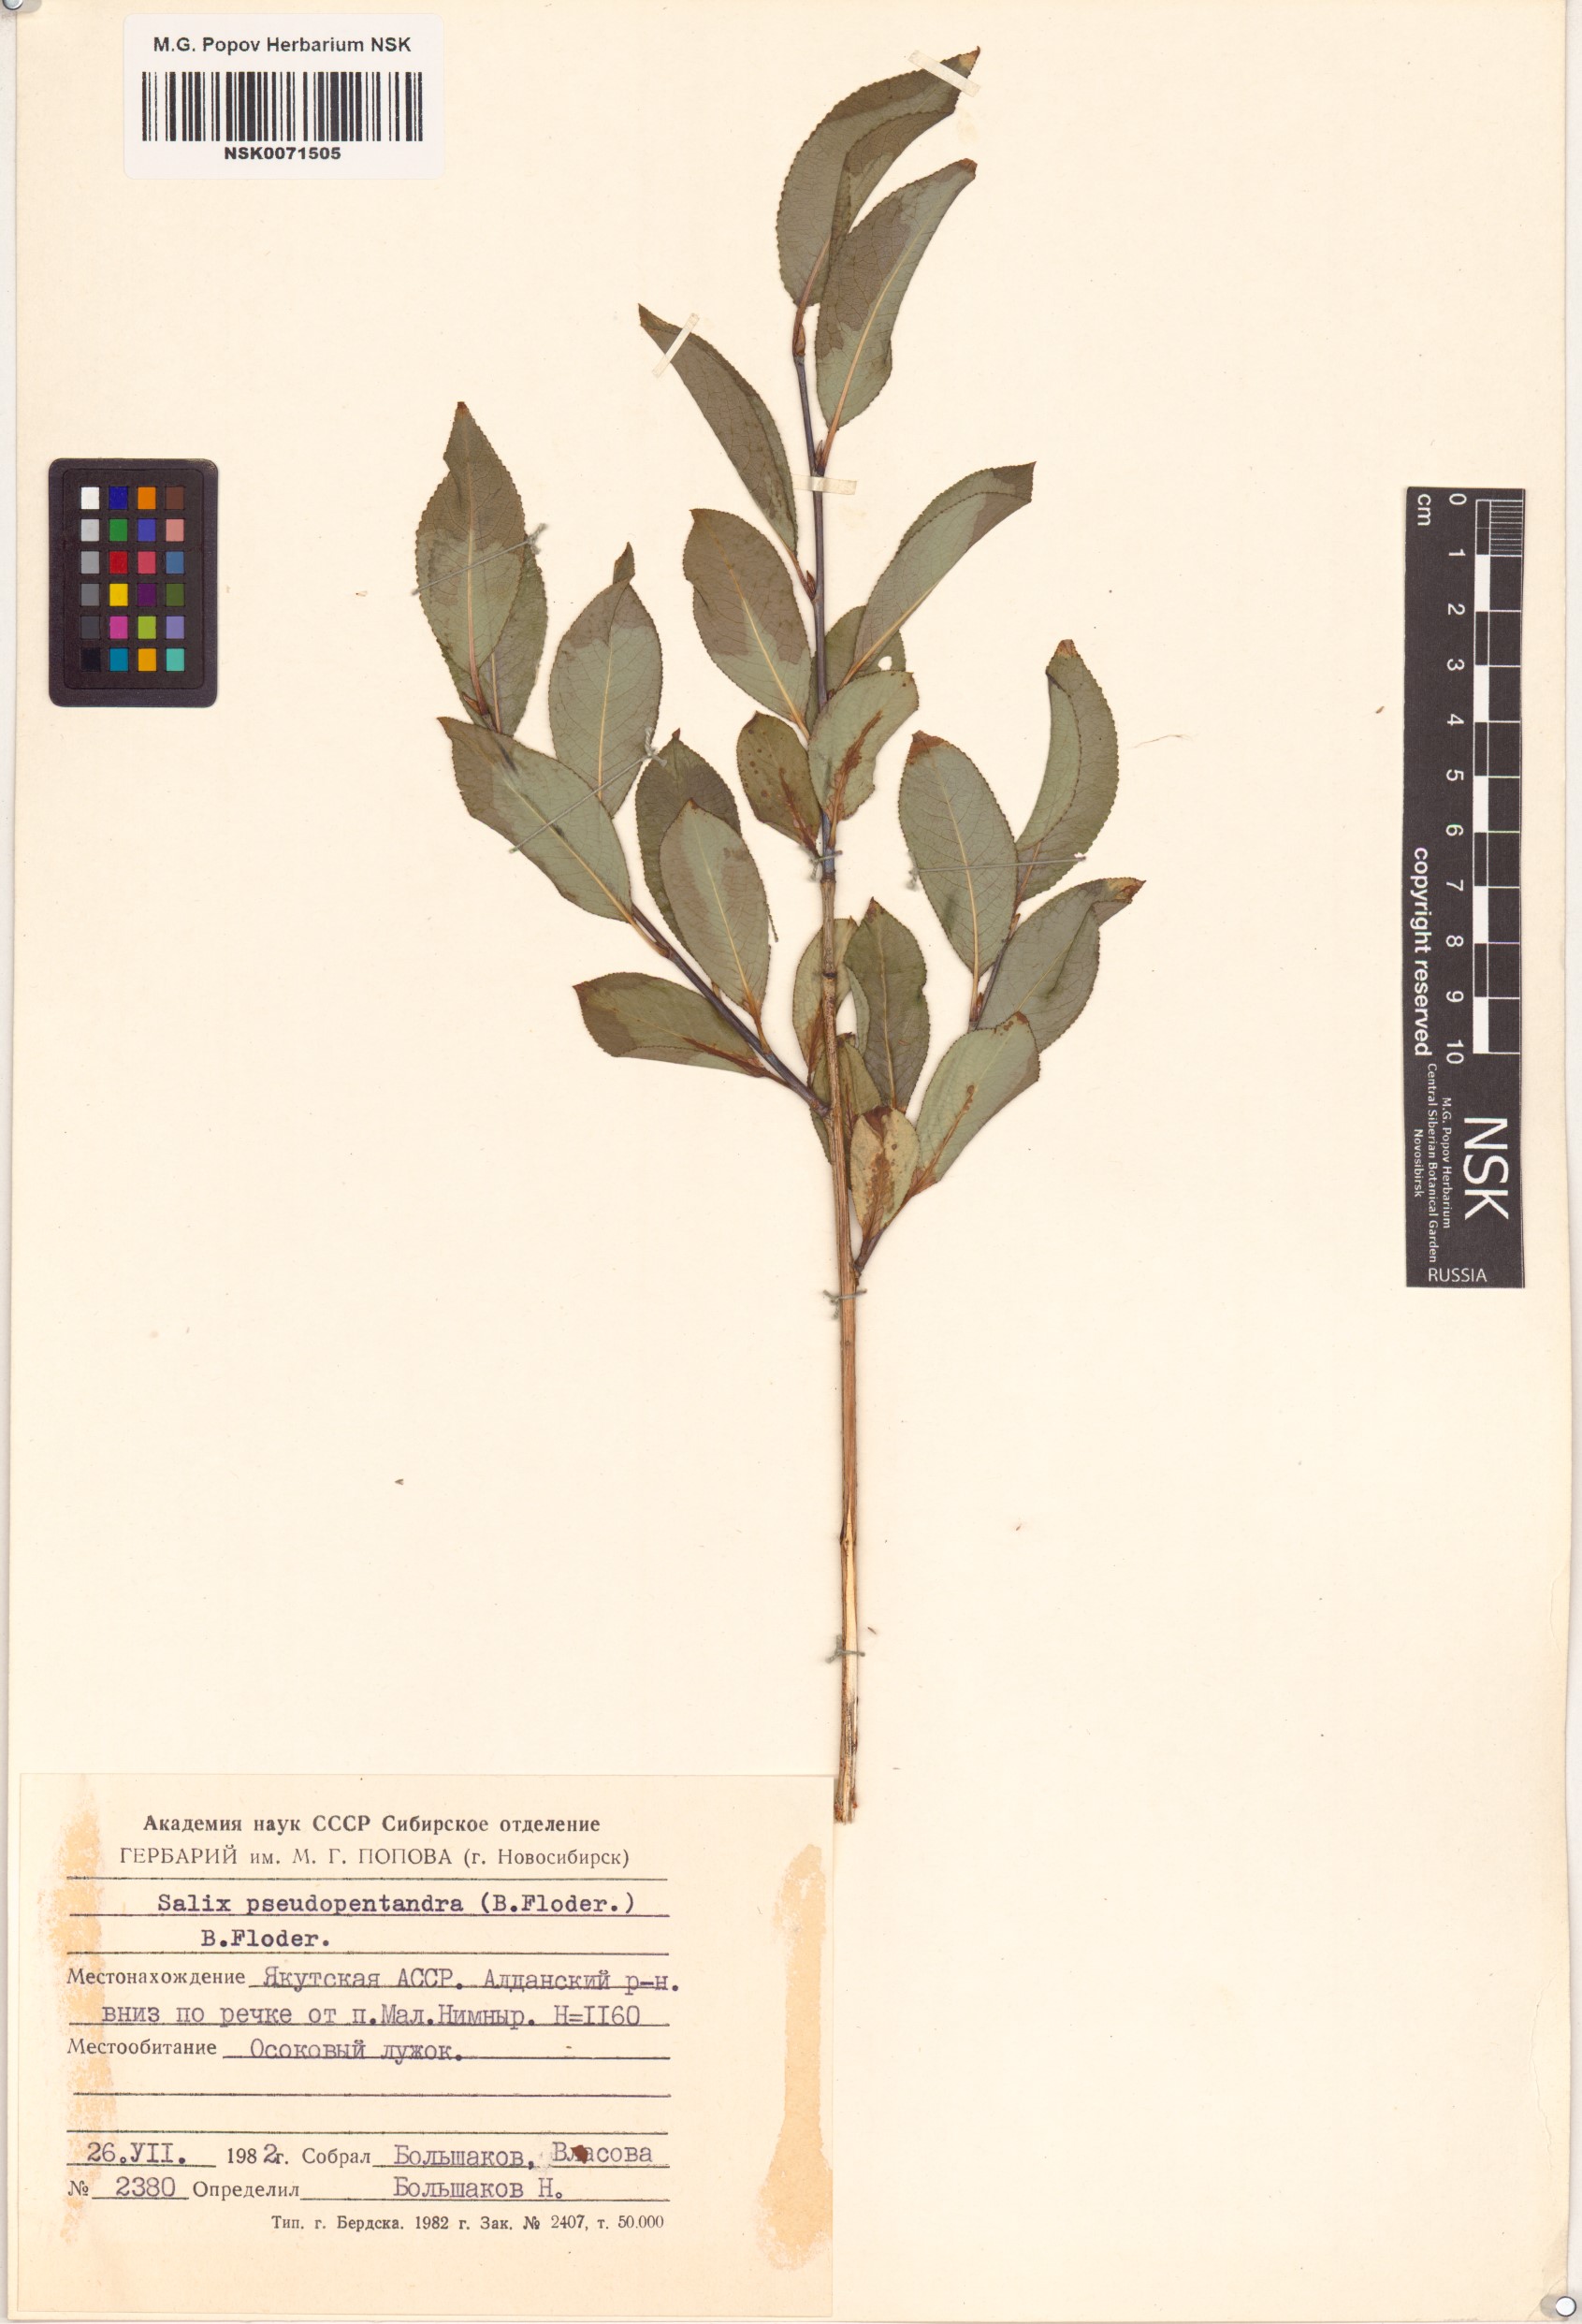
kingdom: Plantae
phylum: Tracheophyta
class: Magnoliopsida
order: Malpighiales
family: Salicaceae
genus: Salix
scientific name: Salix pseudopentandra
